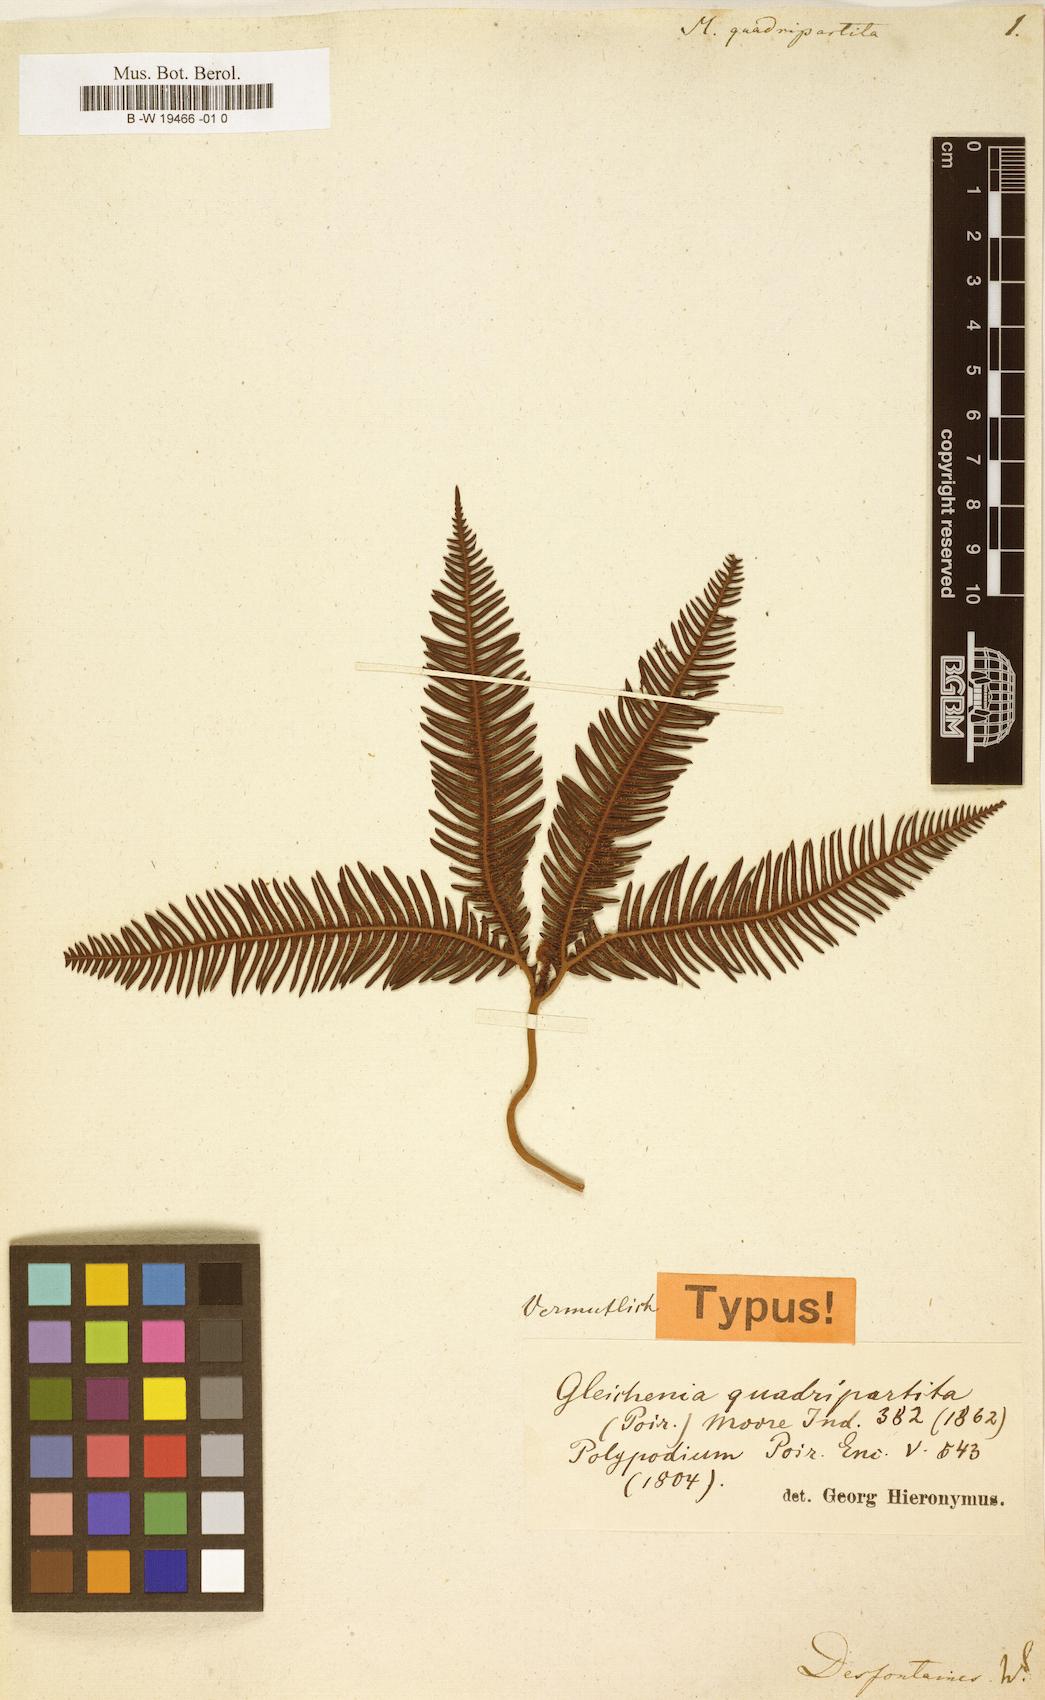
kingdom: Plantae
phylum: Tracheophyta
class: Polypodiopsida
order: Gleicheniales
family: Gleicheniaceae
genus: Sticherus
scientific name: Sticherus quadripartitus
